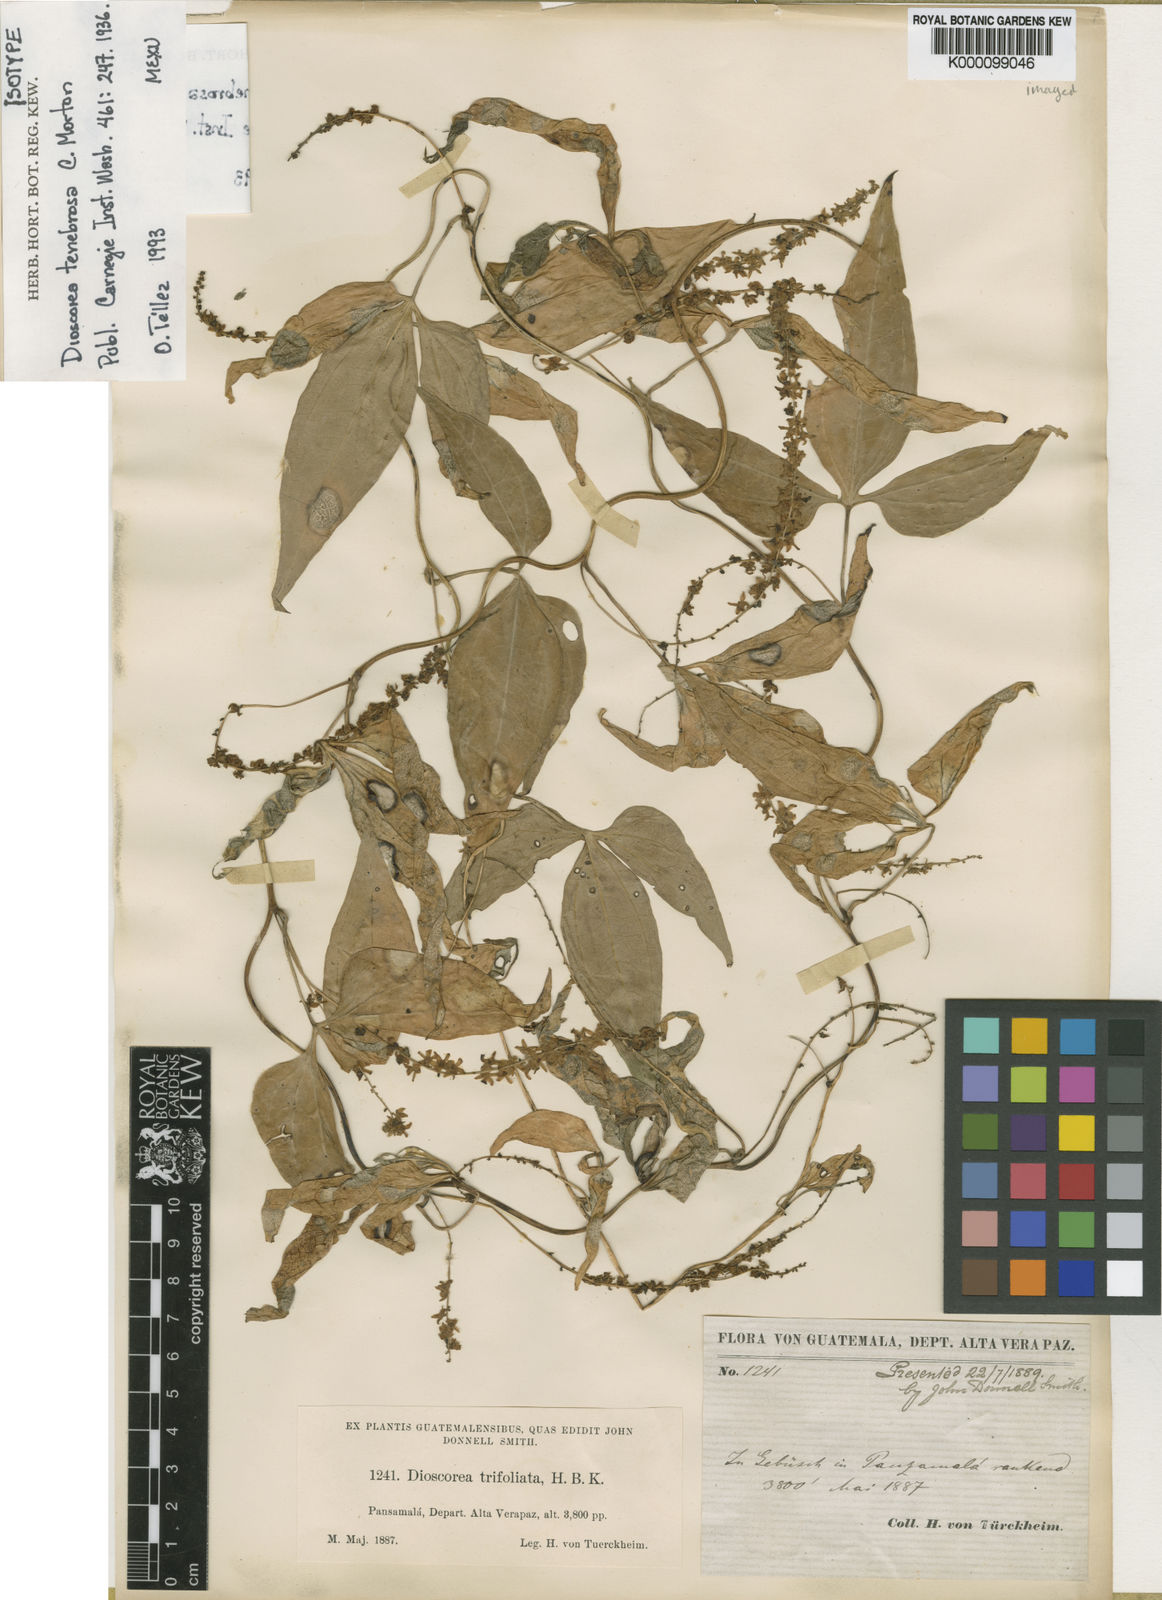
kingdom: Plantae
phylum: Tracheophyta
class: Liliopsida
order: Dioscoreales
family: Dioscoreaceae
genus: Dioscorea
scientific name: Dioscorea tenebrosa
